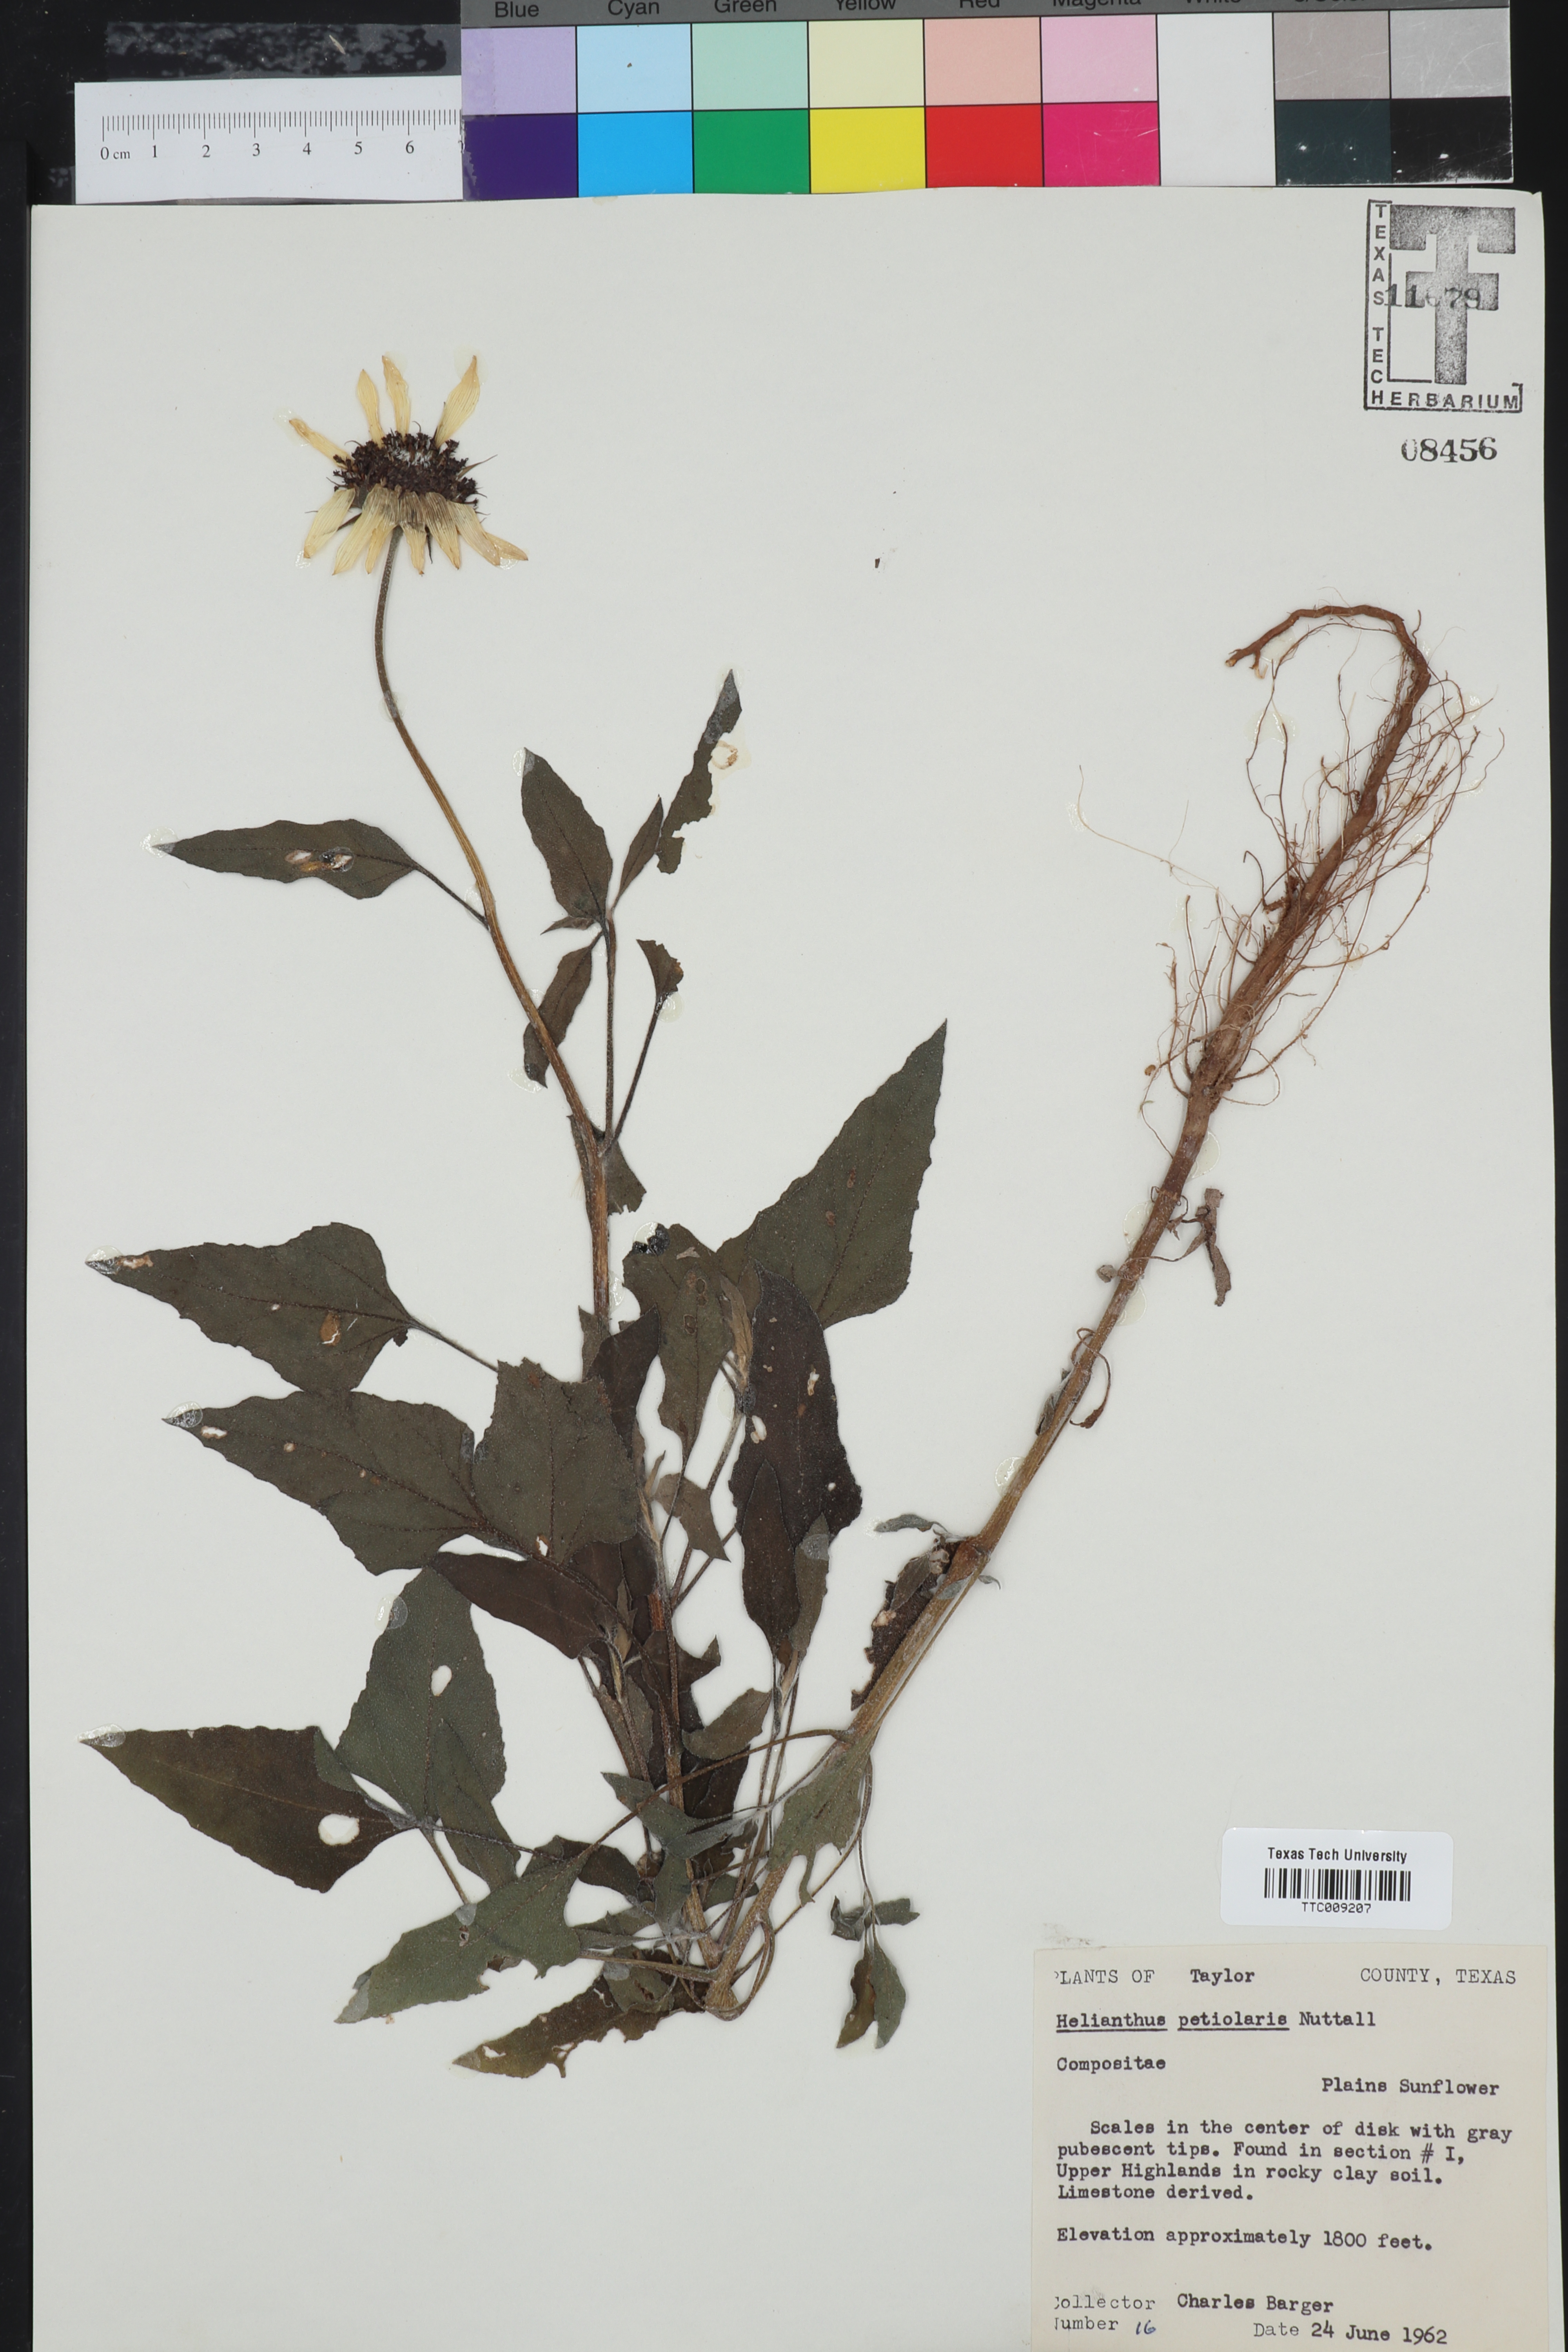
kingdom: Plantae
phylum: Tracheophyta
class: Magnoliopsida
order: Asterales
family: Asteraceae
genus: Helianthus
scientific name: Helianthus petiolaris
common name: Lesser sunflower
